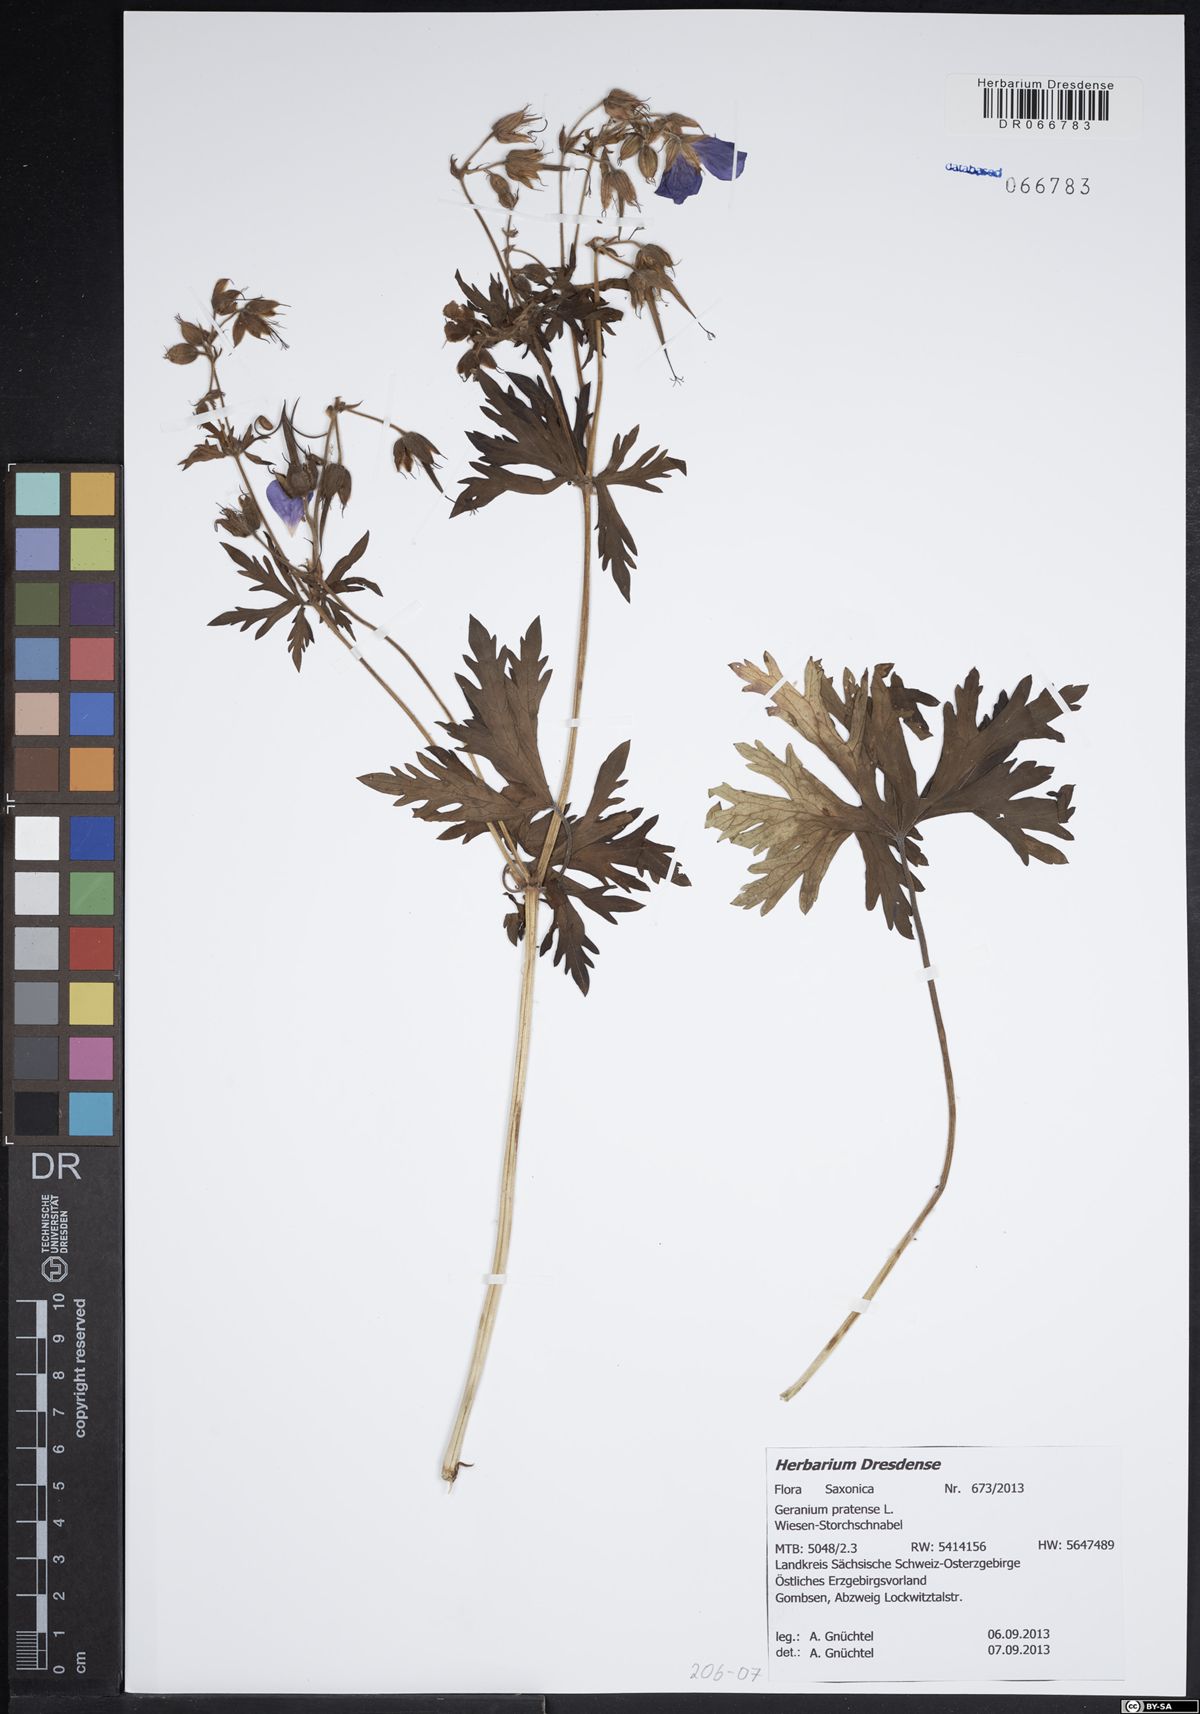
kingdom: Plantae
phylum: Tracheophyta
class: Magnoliopsida
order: Geraniales
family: Geraniaceae
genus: Geranium
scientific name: Geranium pratense
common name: Meadow crane's-bill
